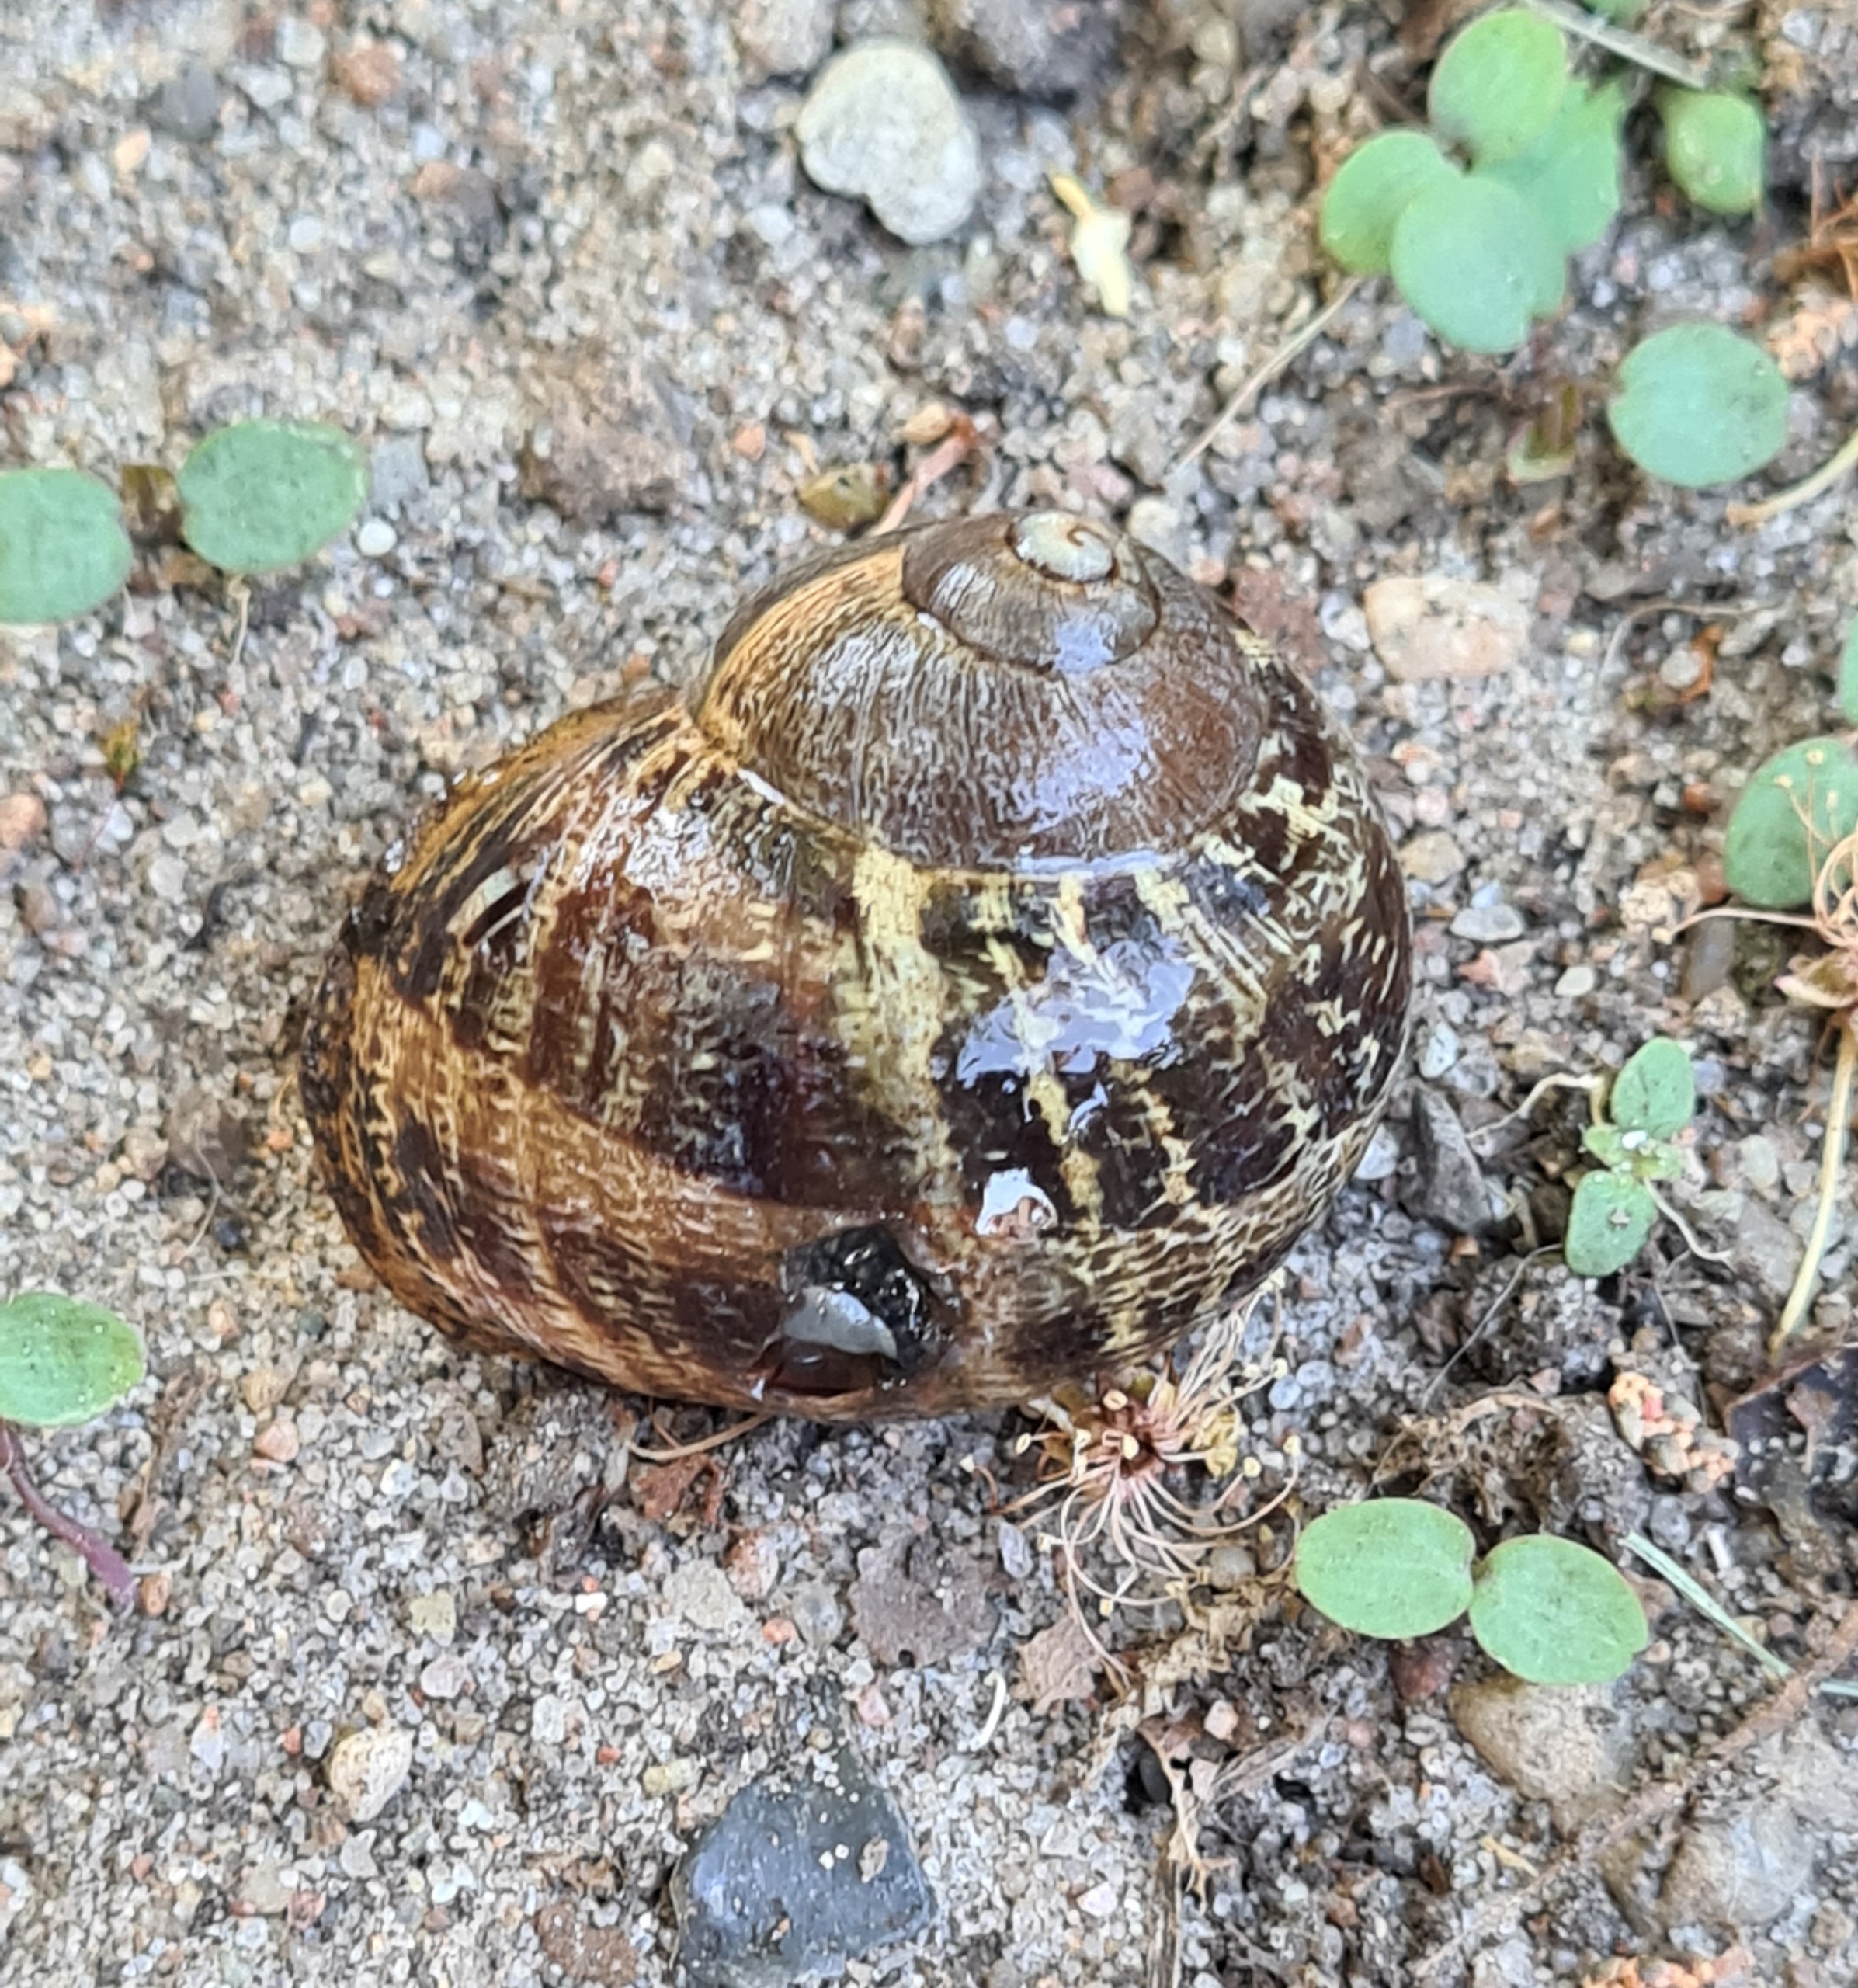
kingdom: Animalia
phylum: Mollusca
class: Gastropoda
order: Stylommatophora
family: Helicidae
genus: Cornu
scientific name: Cornu aspersum
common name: Plettet voldsnegl
